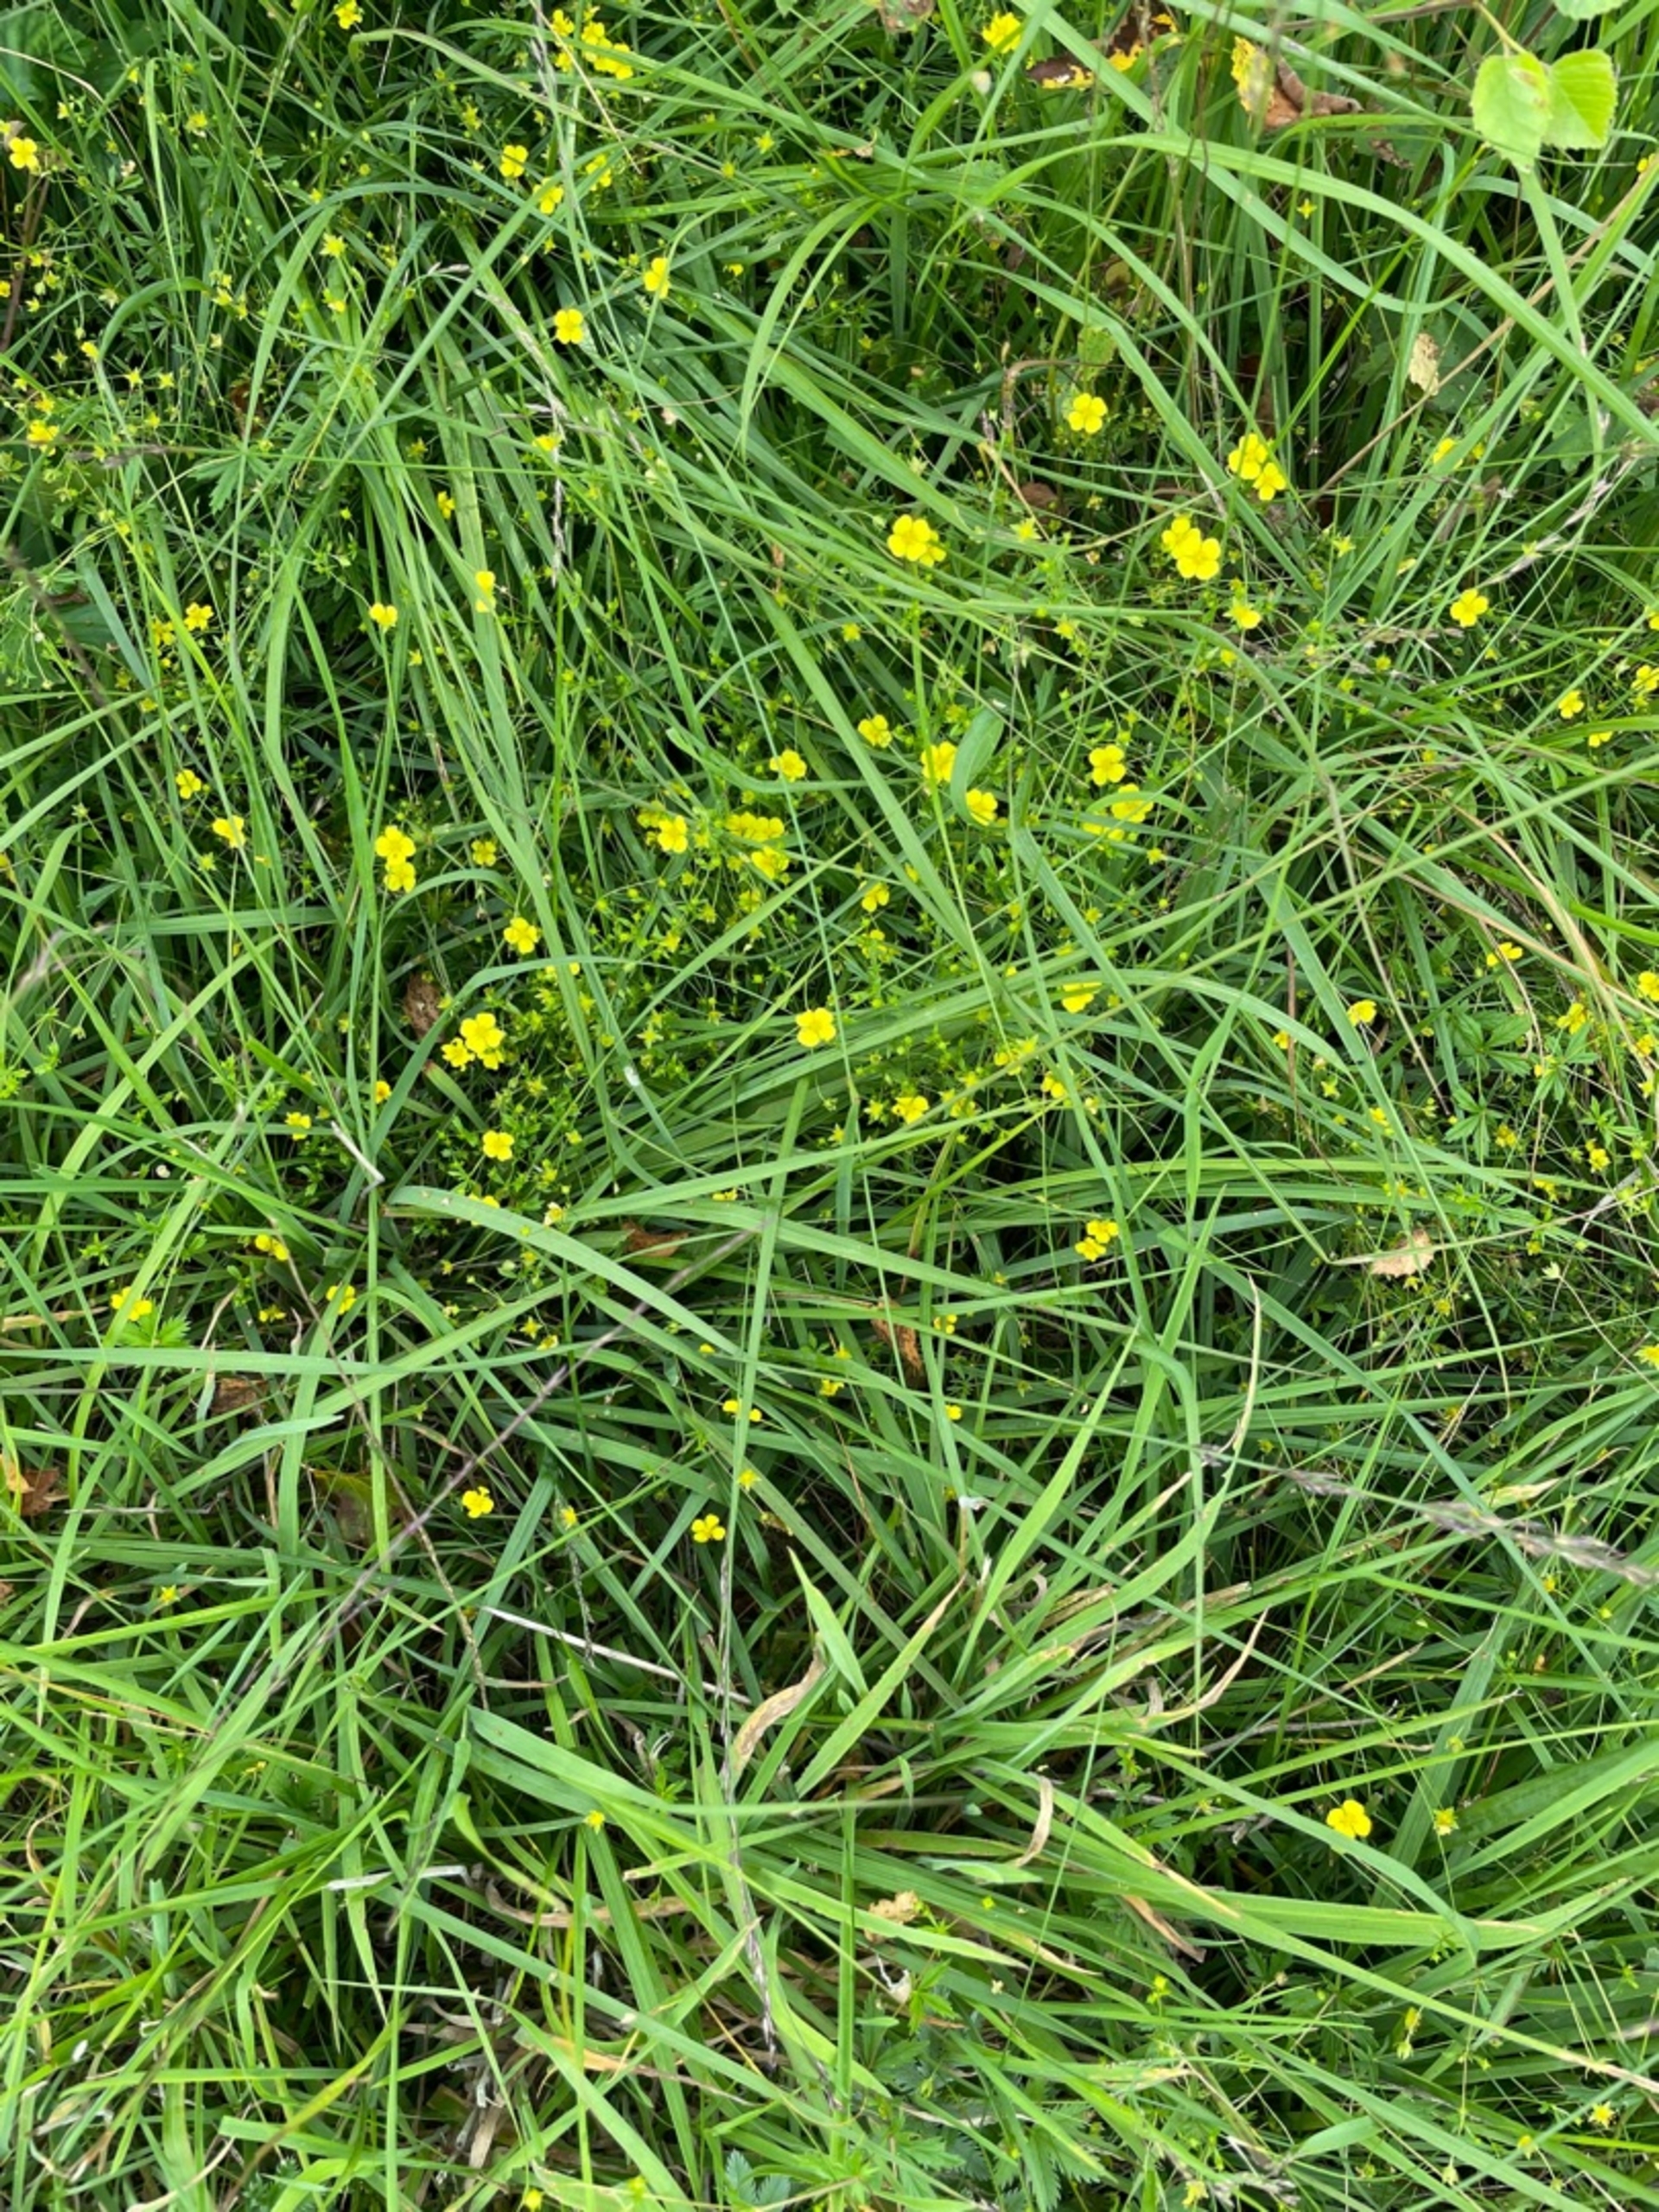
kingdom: Plantae
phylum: Tracheophyta
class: Magnoliopsida
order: Rosales
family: Rosaceae
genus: Potentilla
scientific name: Potentilla erecta
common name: Tormentil
